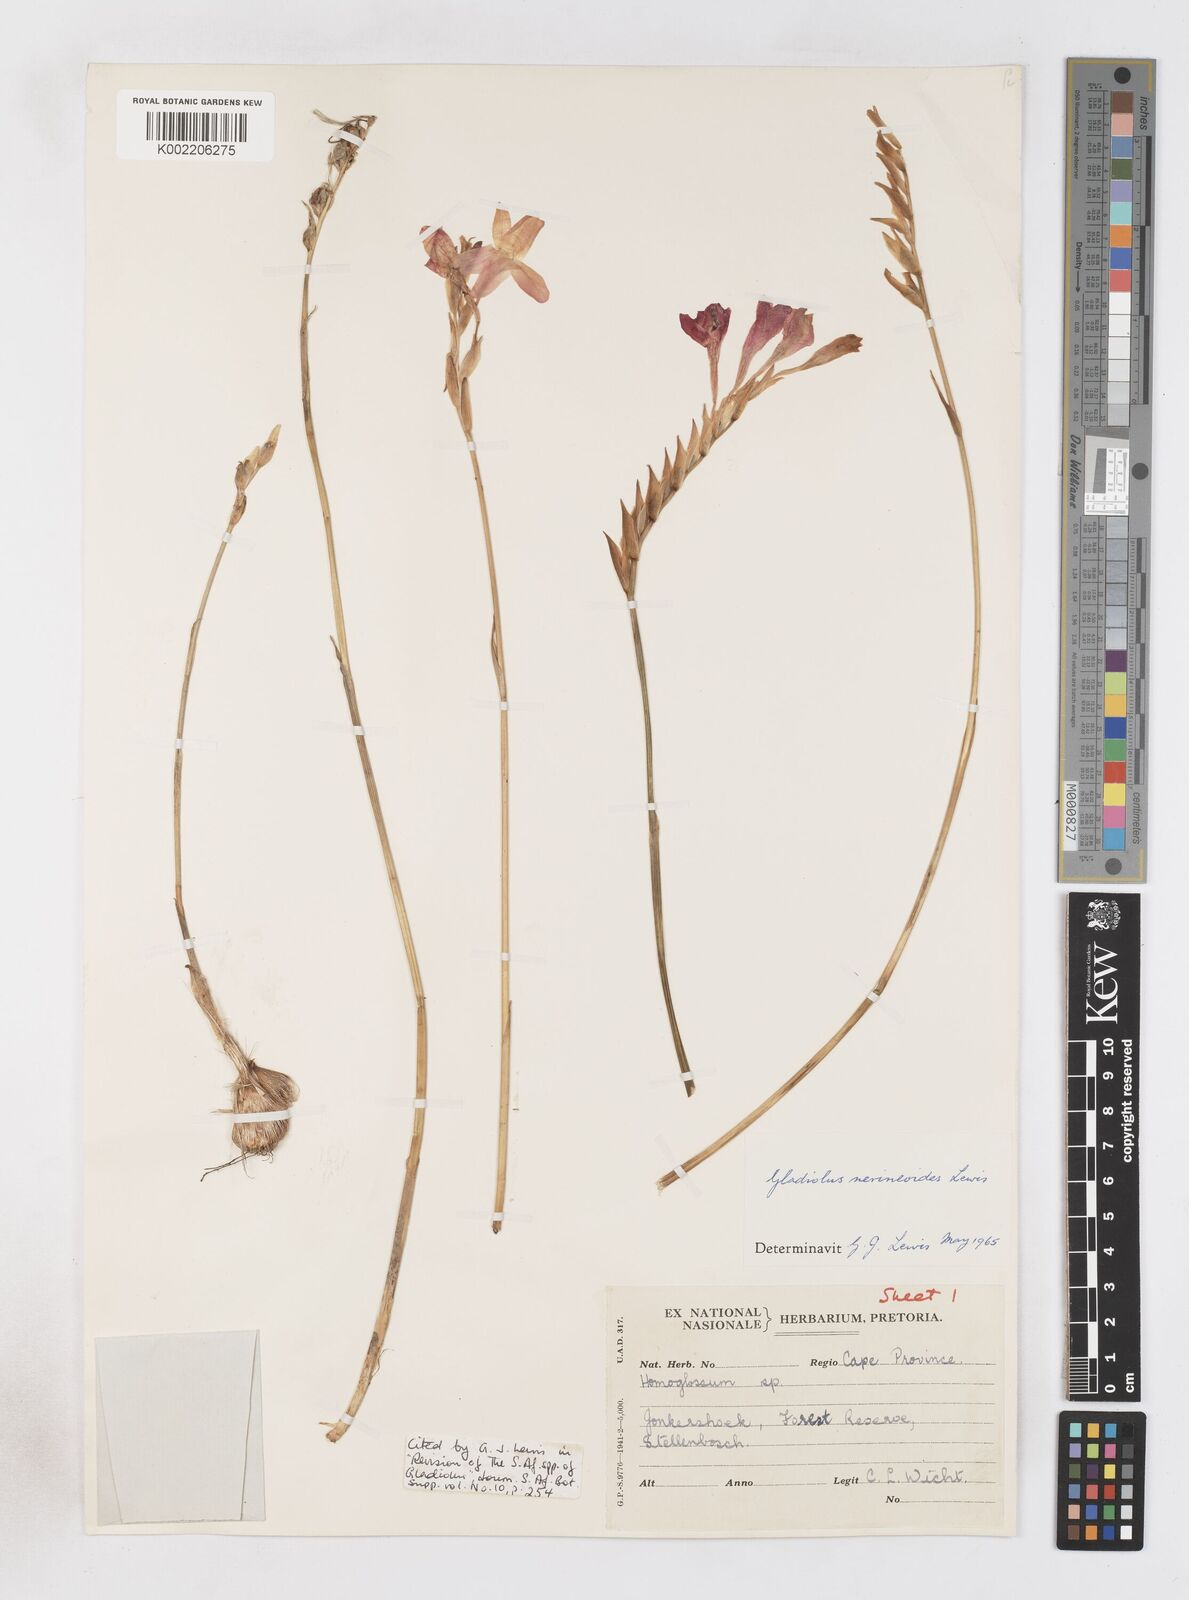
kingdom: Plantae
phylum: Tracheophyta
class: Liliopsida
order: Asparagales
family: Iridaceae
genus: Gladiolus
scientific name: Gladiolus nerineoides
